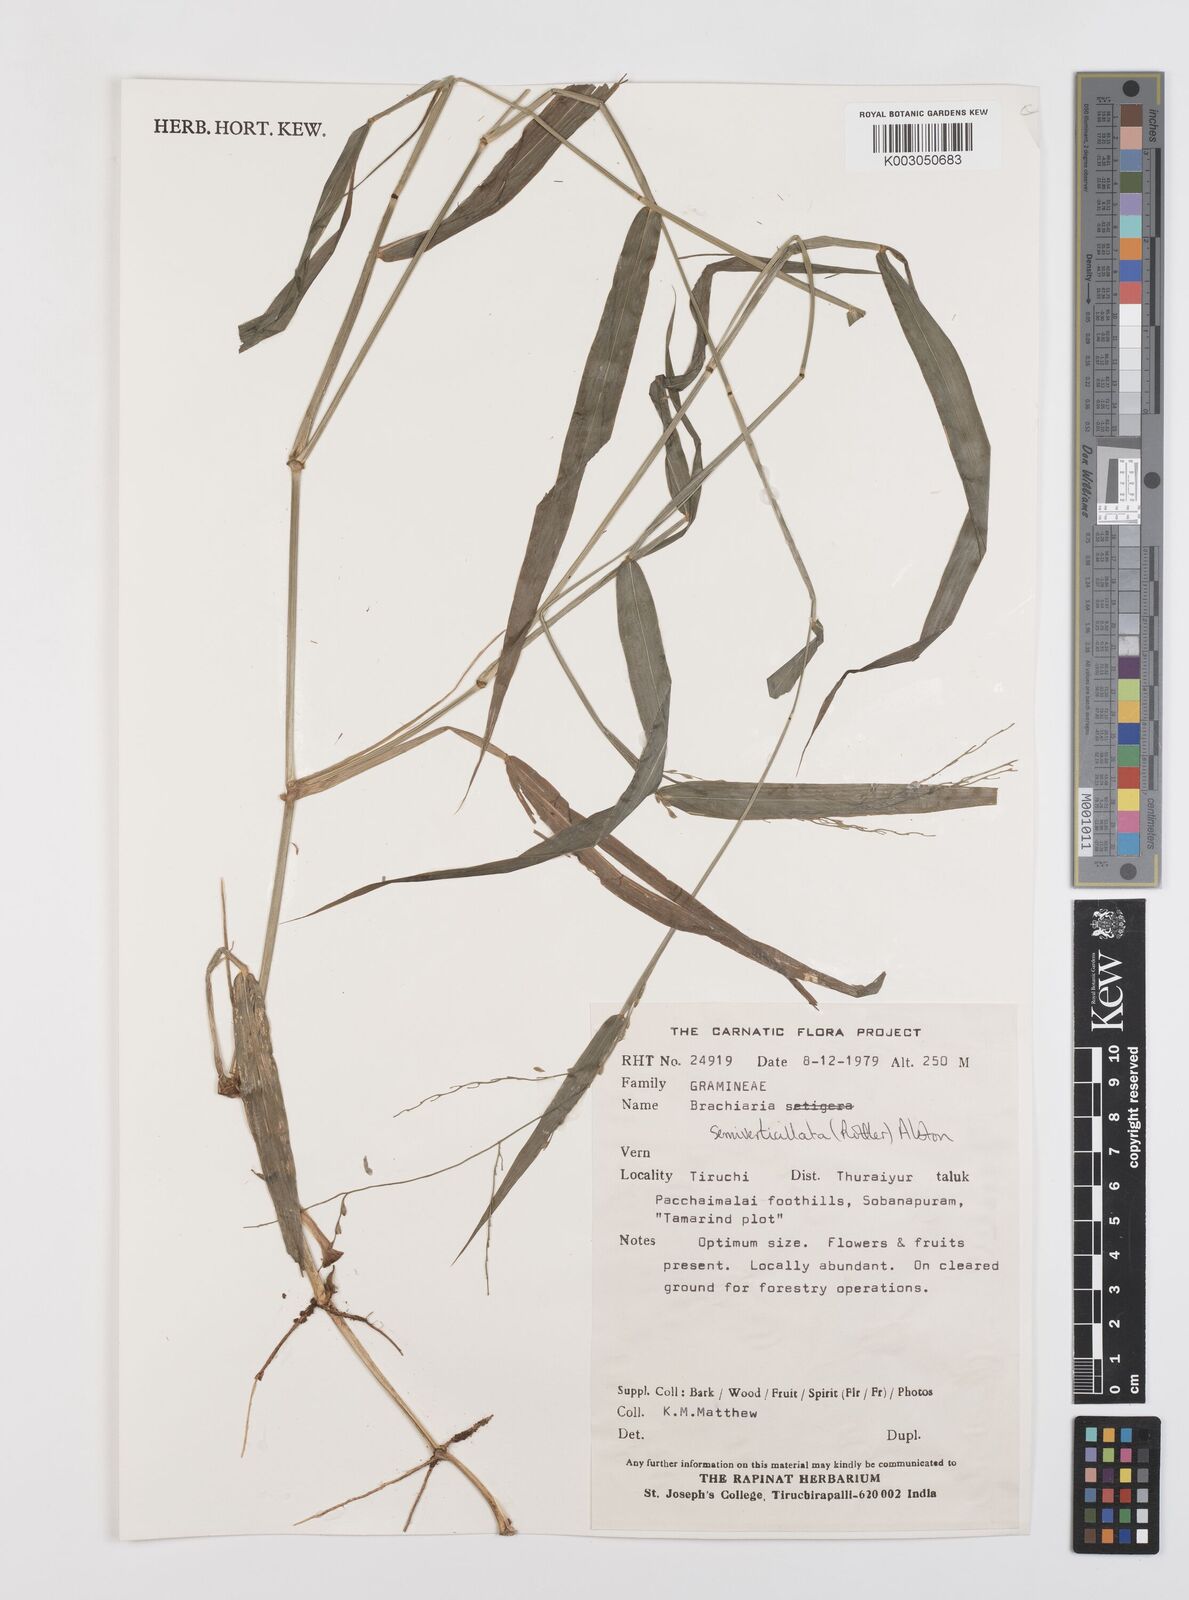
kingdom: Plantae
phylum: Tracheophyta
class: Liliopsida
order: Poales
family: Poaceae
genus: Urochloa
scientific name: Urochloa Brachiaria semiverticillata
